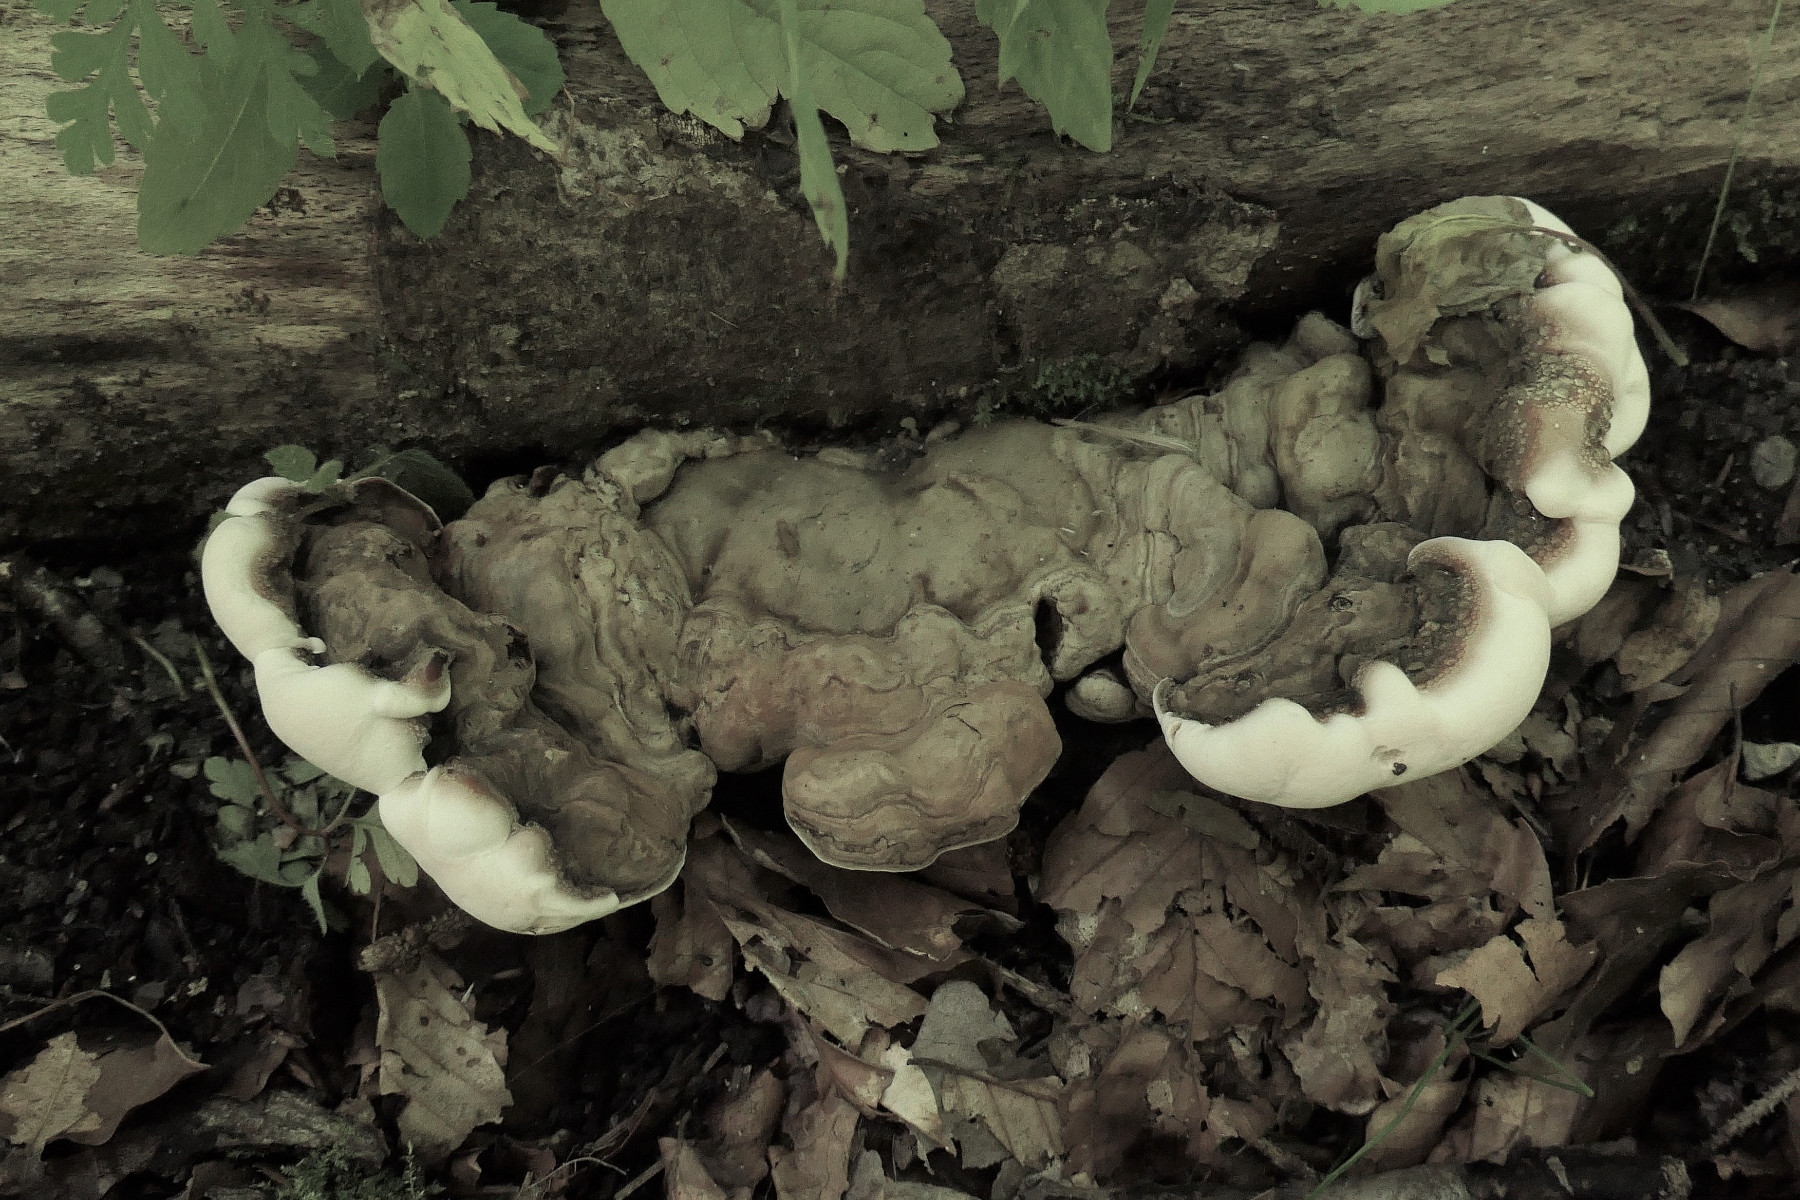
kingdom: Fungi
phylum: Basidiomycota
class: Agaricomycetes
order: Polyporales
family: Polyporaceae
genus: Ganoderma
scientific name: Ganoderma applanatum
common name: flad lakporesvamp
